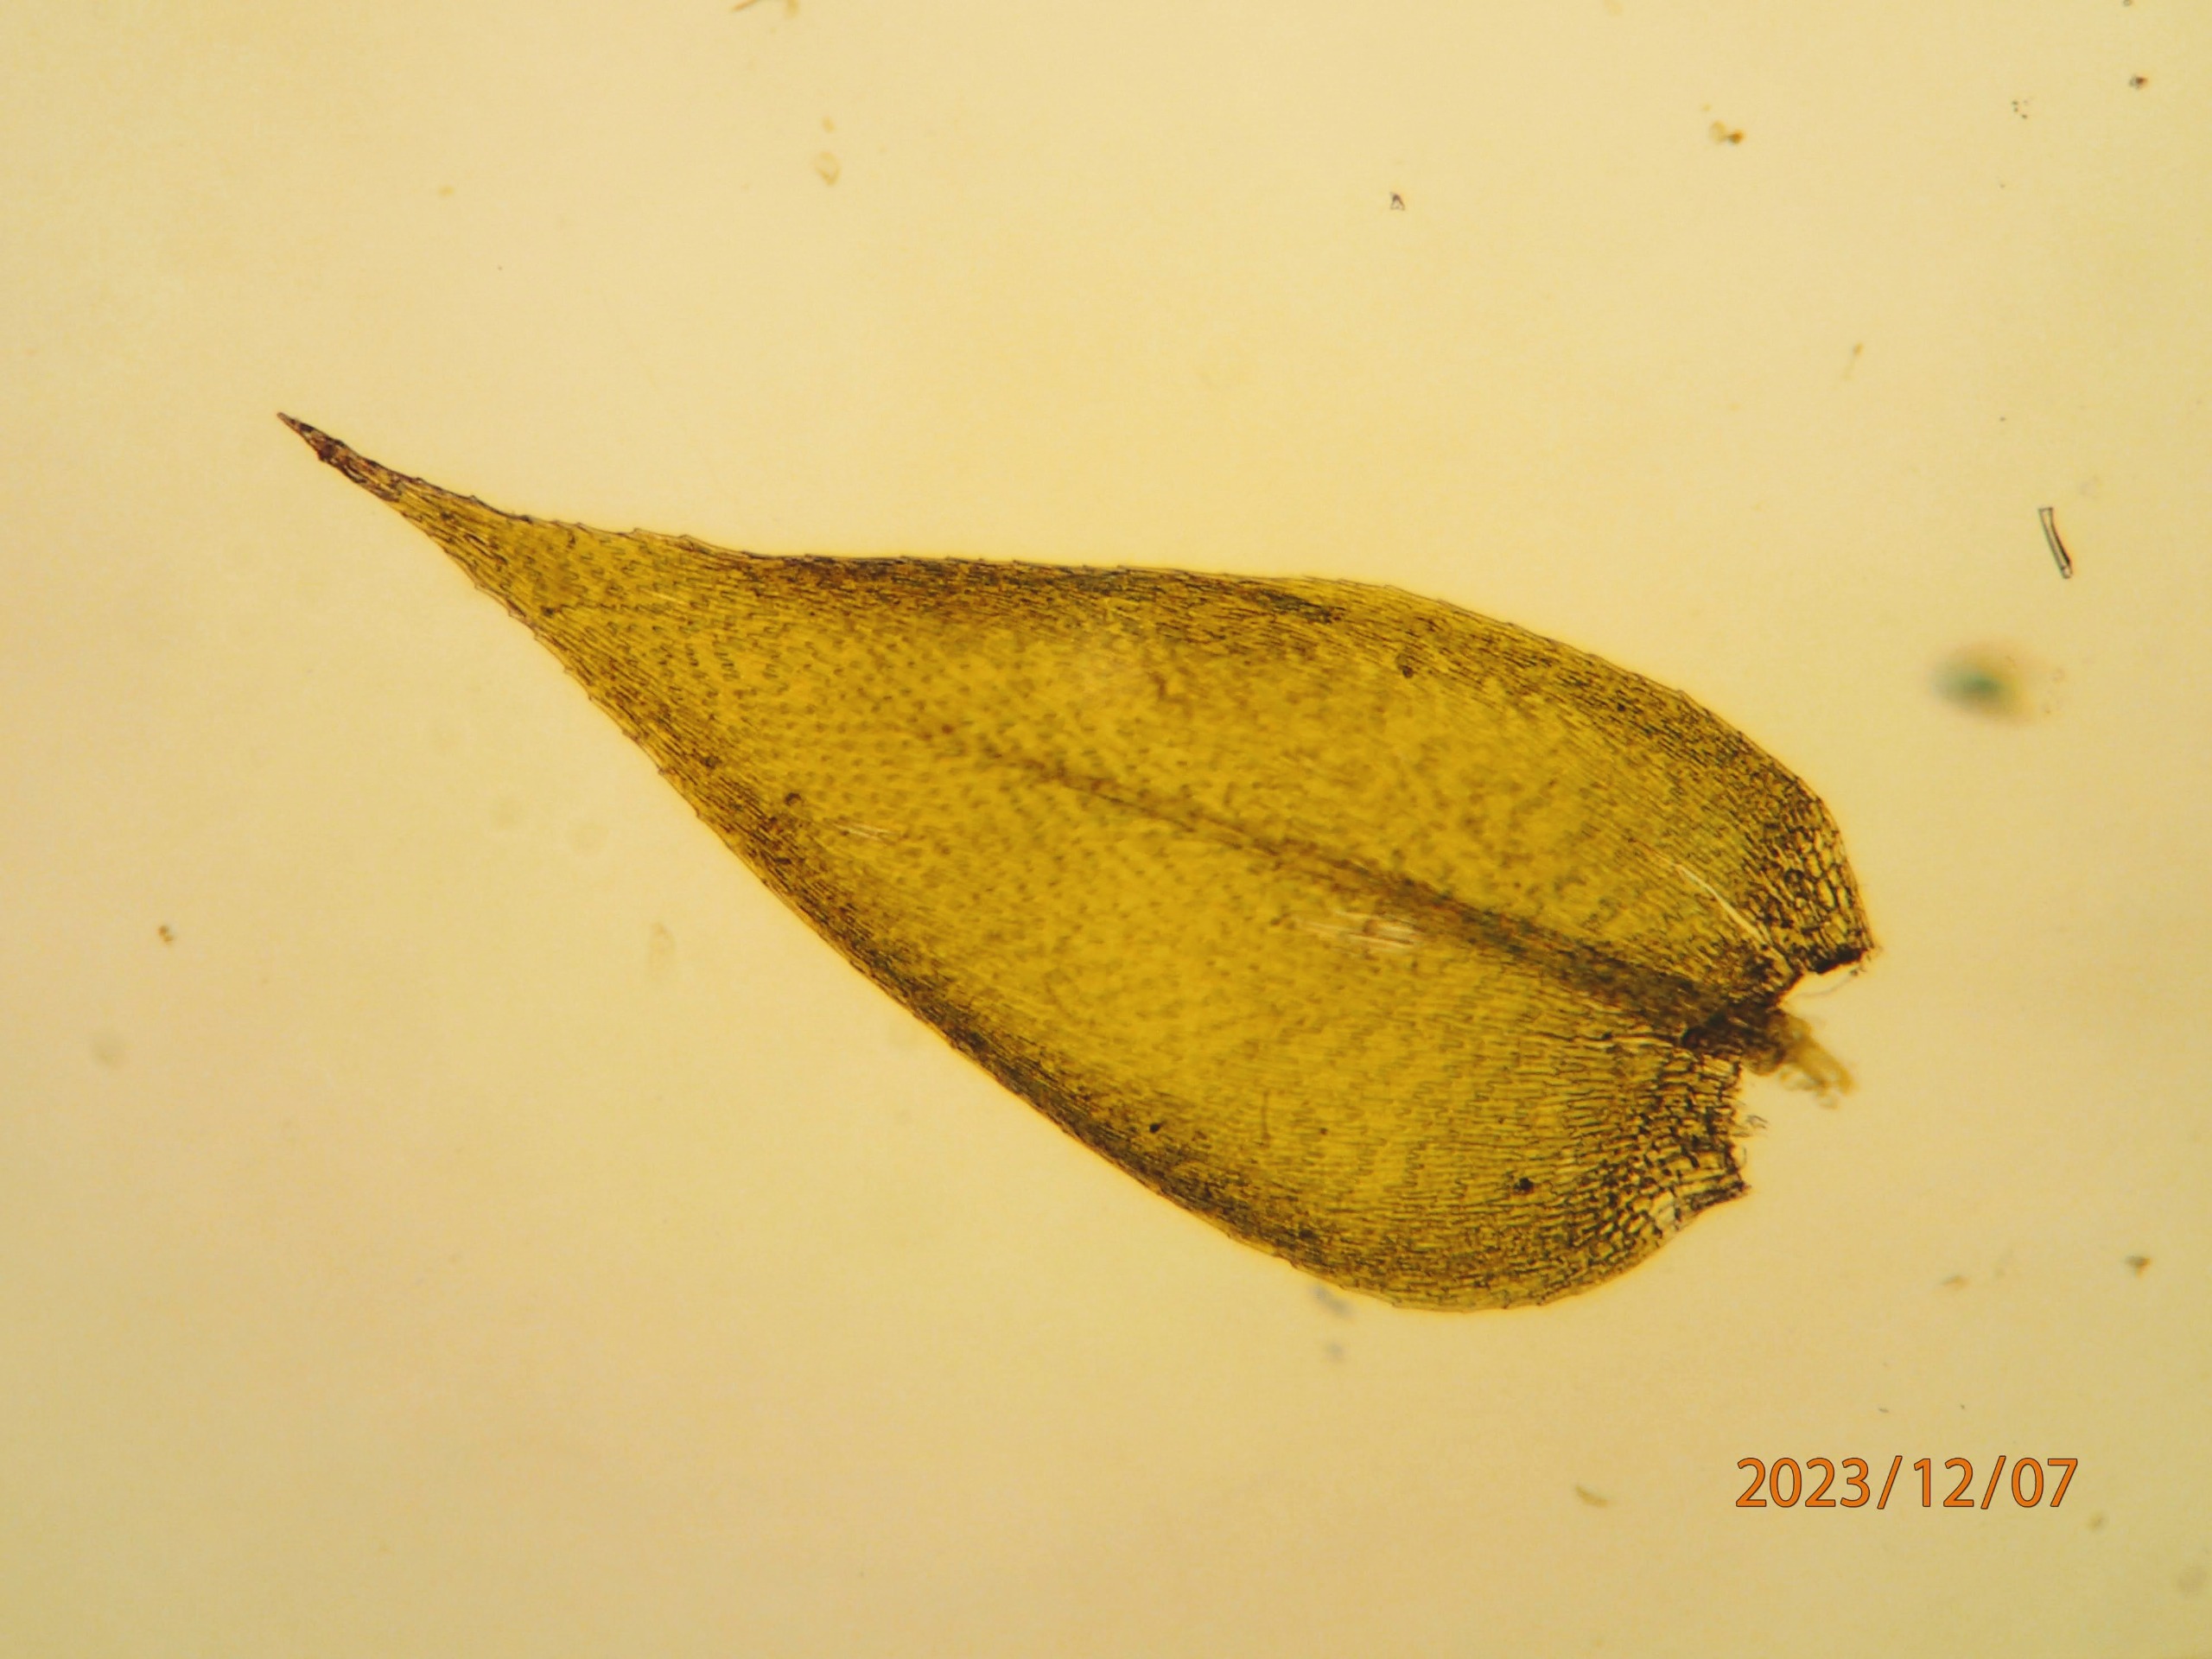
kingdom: Plantae
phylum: Bryophyta
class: Bryopsida
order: Hypnales
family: Brachytheciaceae
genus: Rhynchostegium
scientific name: Rhynchostegium confertum
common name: Skov-langnæb
